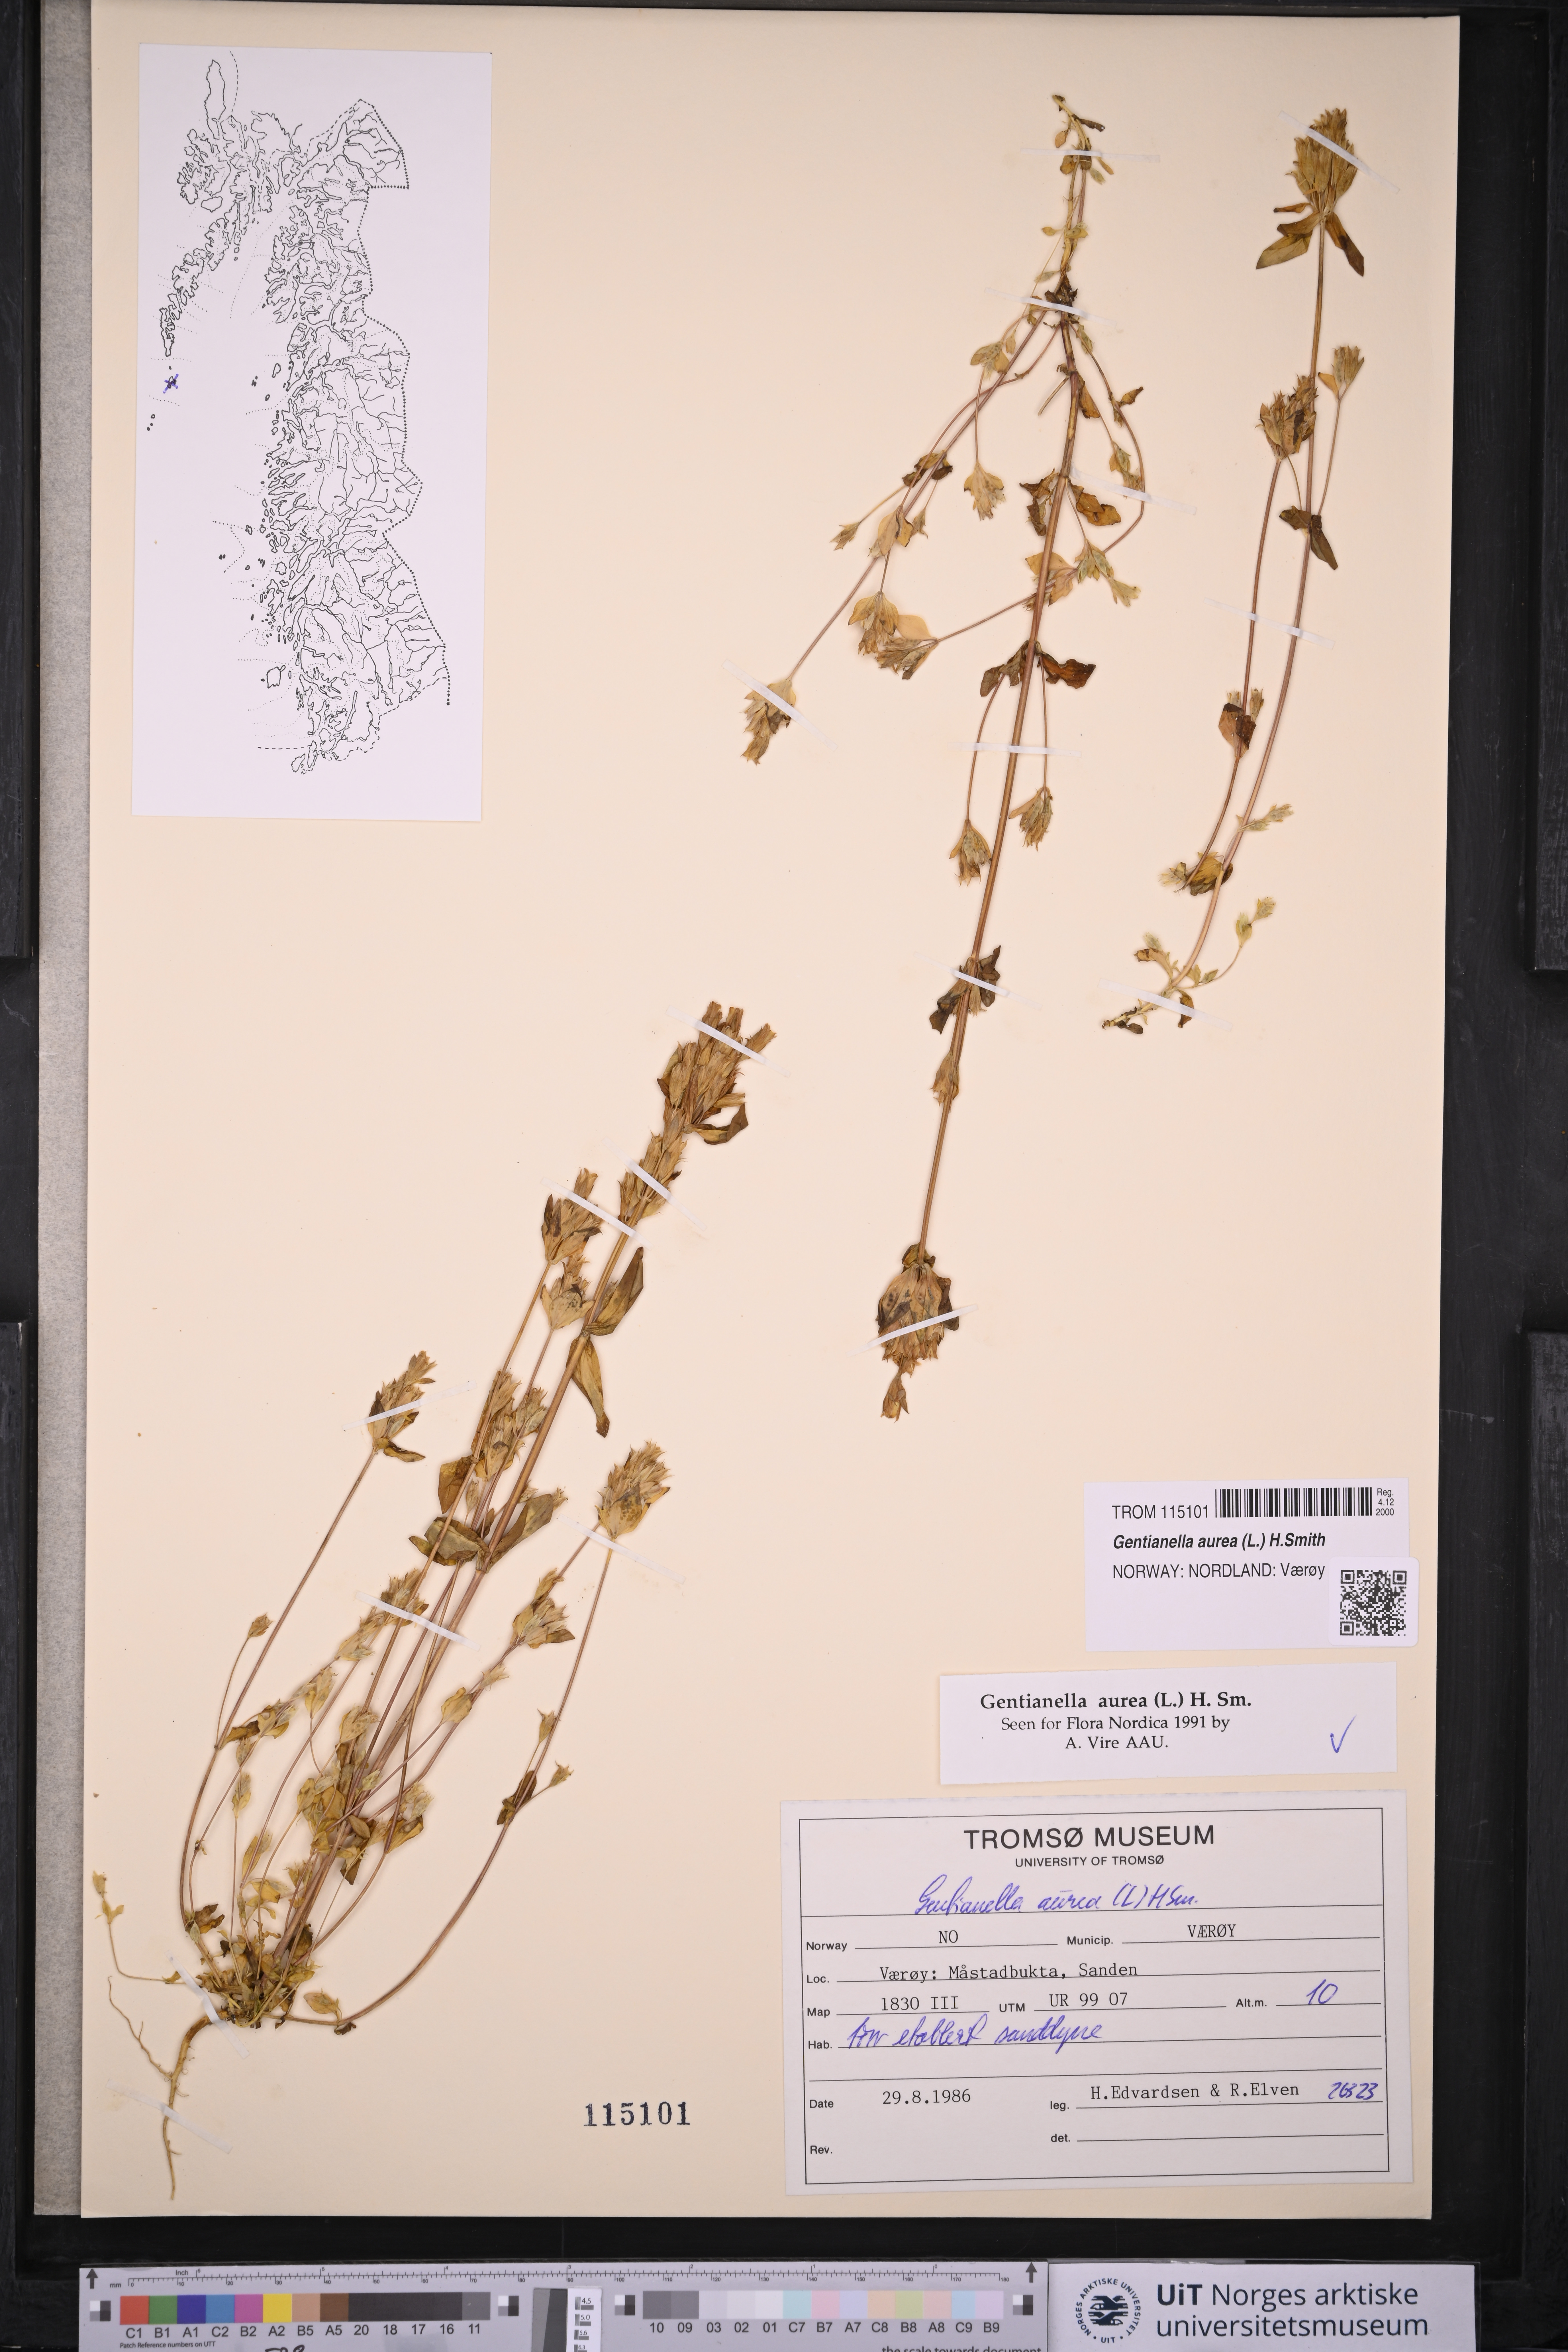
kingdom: Plantae
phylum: Tracheophyta
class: Magnoliopsida
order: Gentianales
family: Gentianaceae
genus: Gentianella
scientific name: Gentianella aurea
